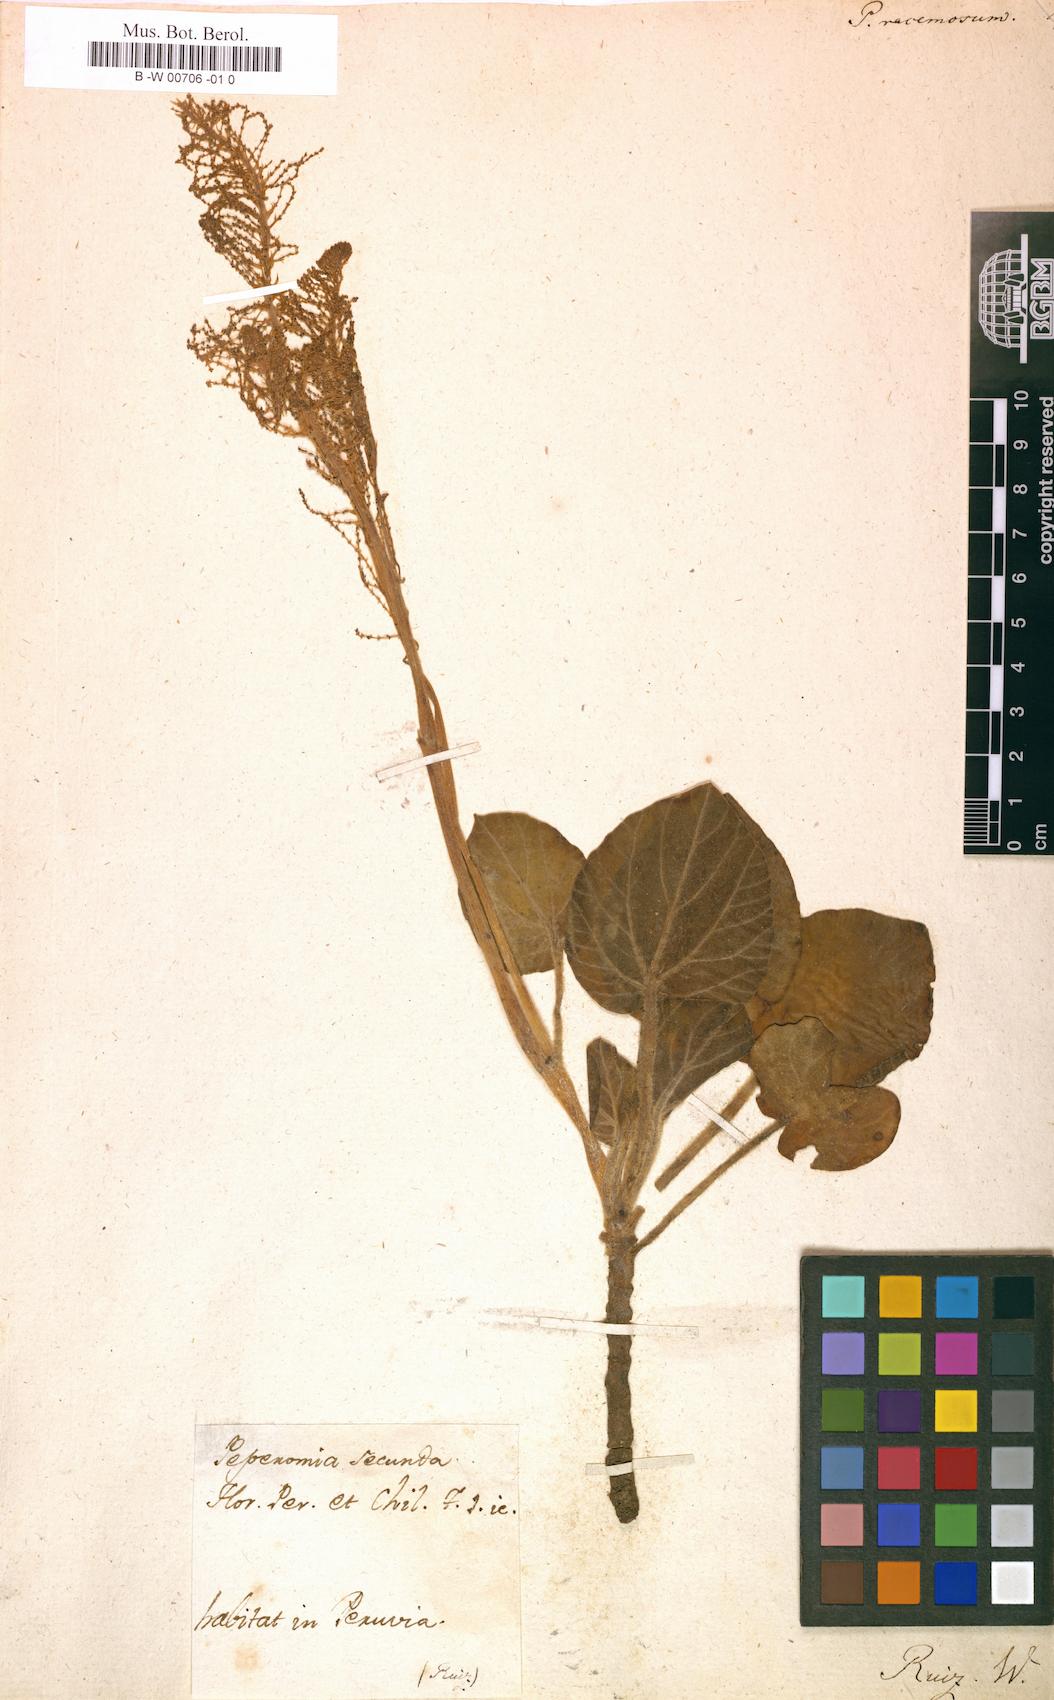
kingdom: Plantae
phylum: Tracheophyta
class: Magnoliopsida
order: Piperales
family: Piperaceae
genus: Peperomia
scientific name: Peperomia secunda
